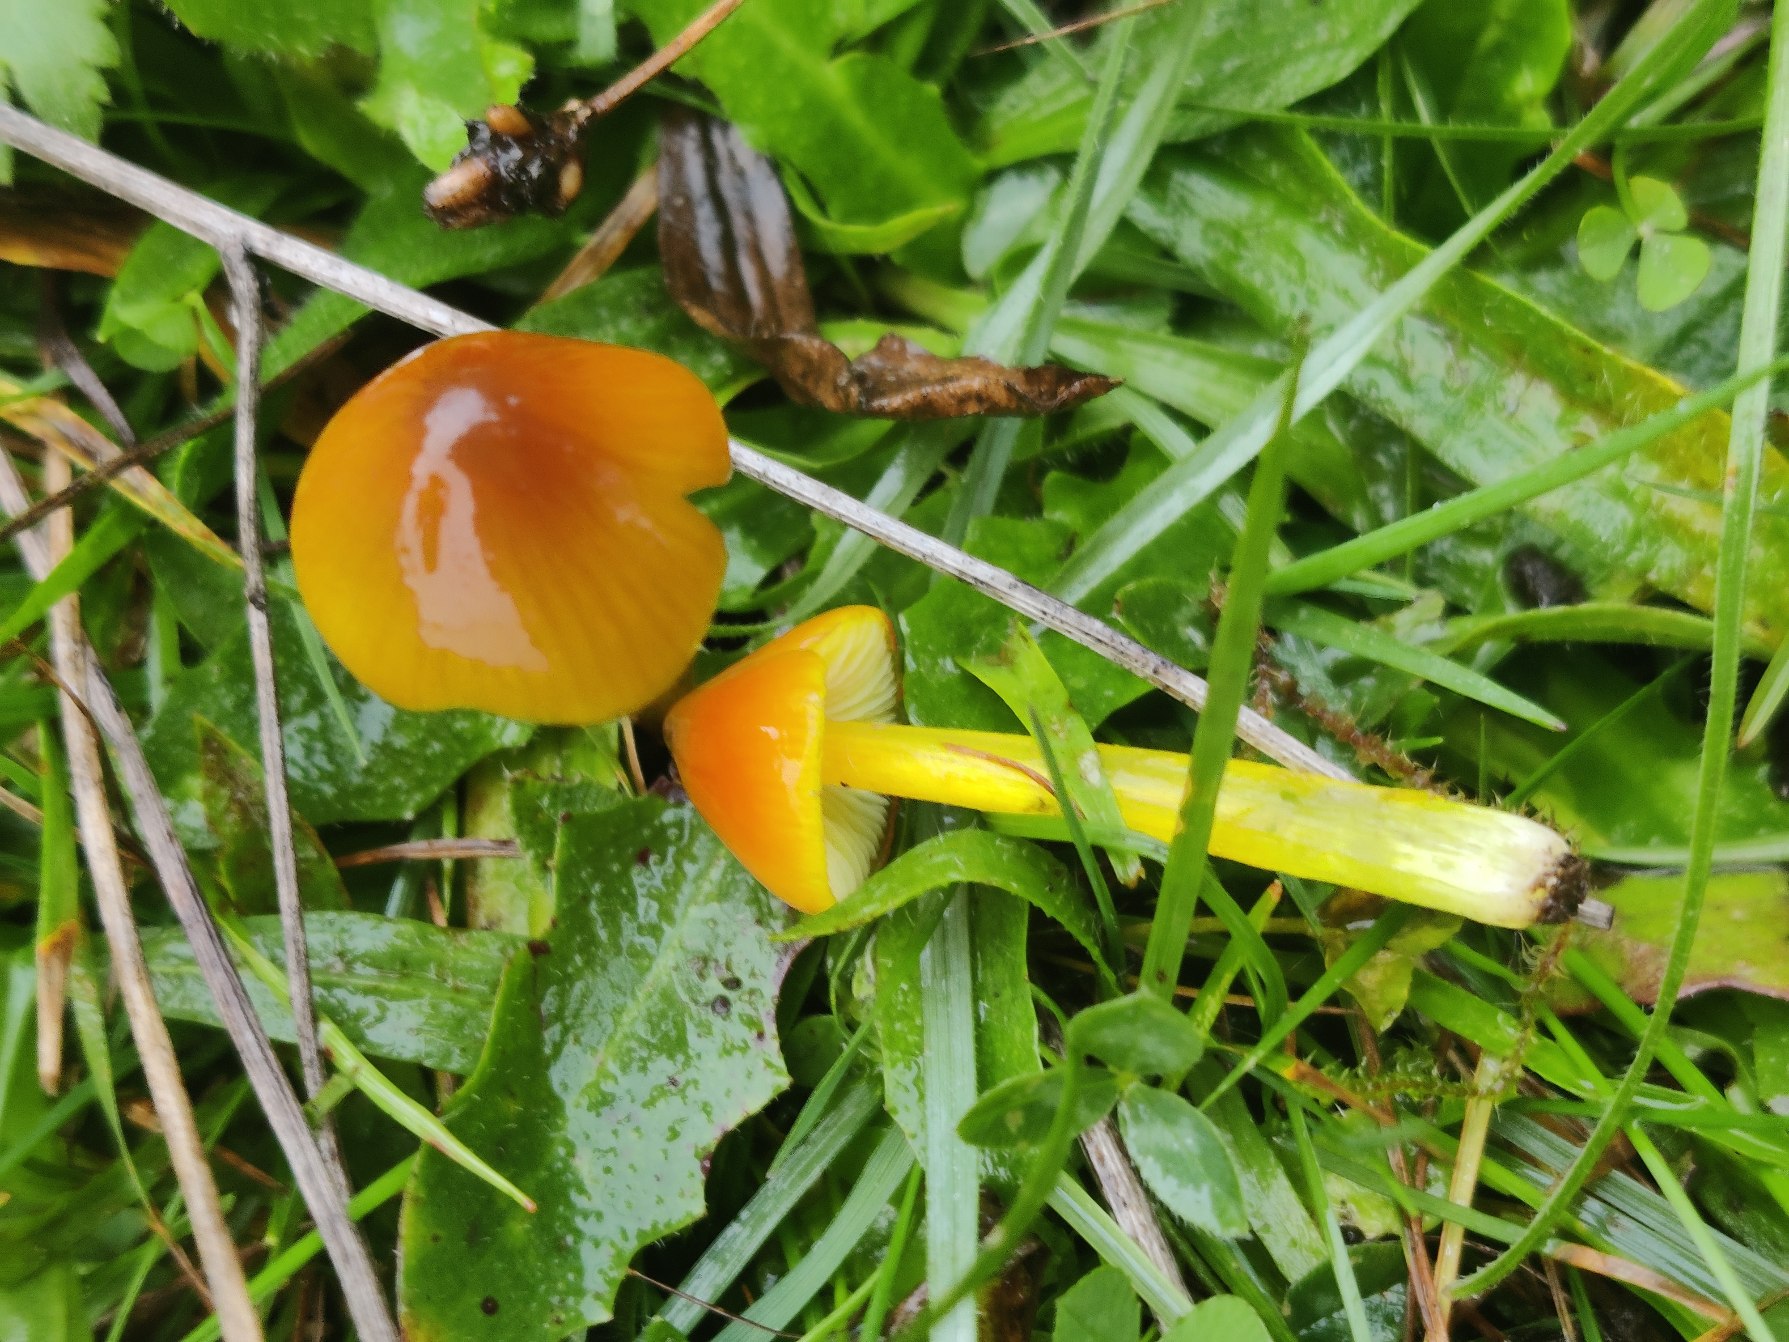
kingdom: Fungi
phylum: Basidiomycota
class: Agaricomycetes
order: Agaricales
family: Hygrophoraceae
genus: Hygrocybe
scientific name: Hygrocybe conica
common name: Kegle-vokshat
